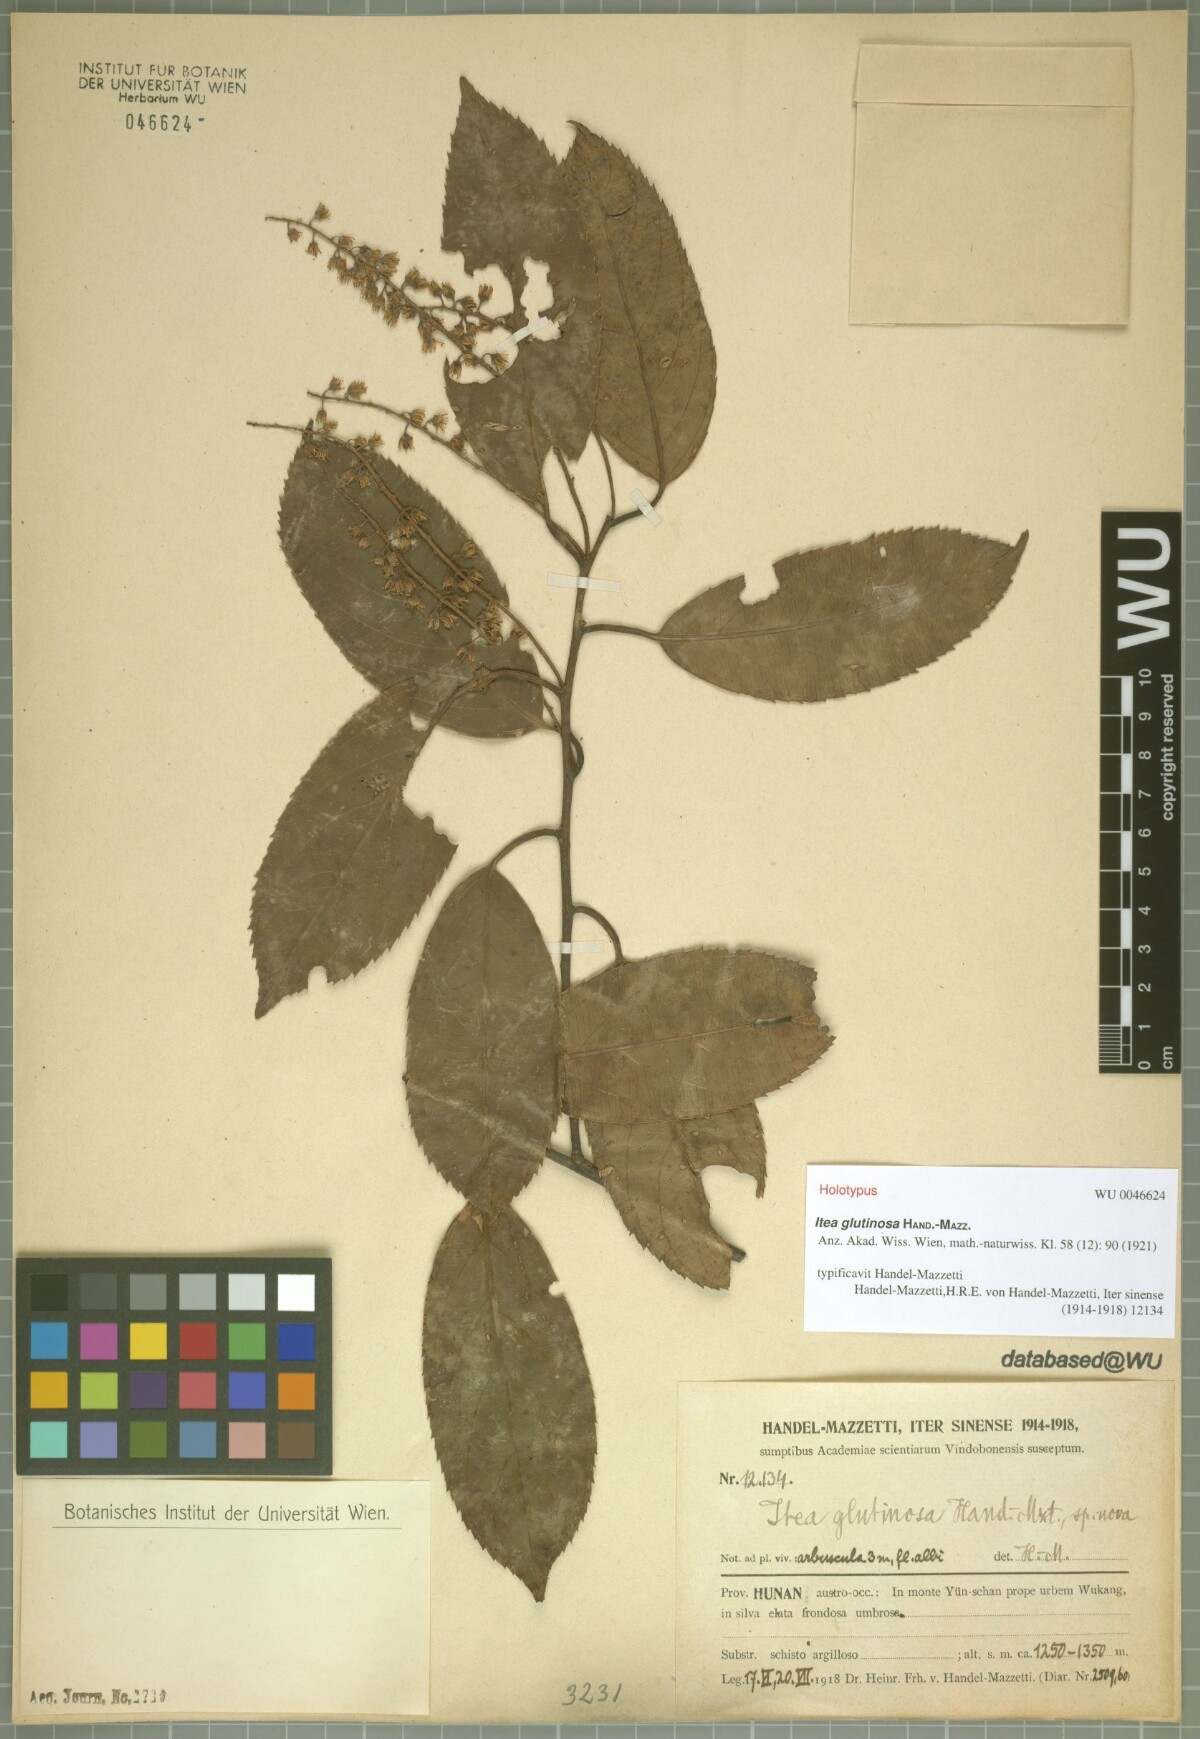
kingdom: Plantae
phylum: Tracheophyta
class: Magnoliopsida
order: Saxifragales
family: Iteaceae
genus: Itea
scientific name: Itea glutinosa
